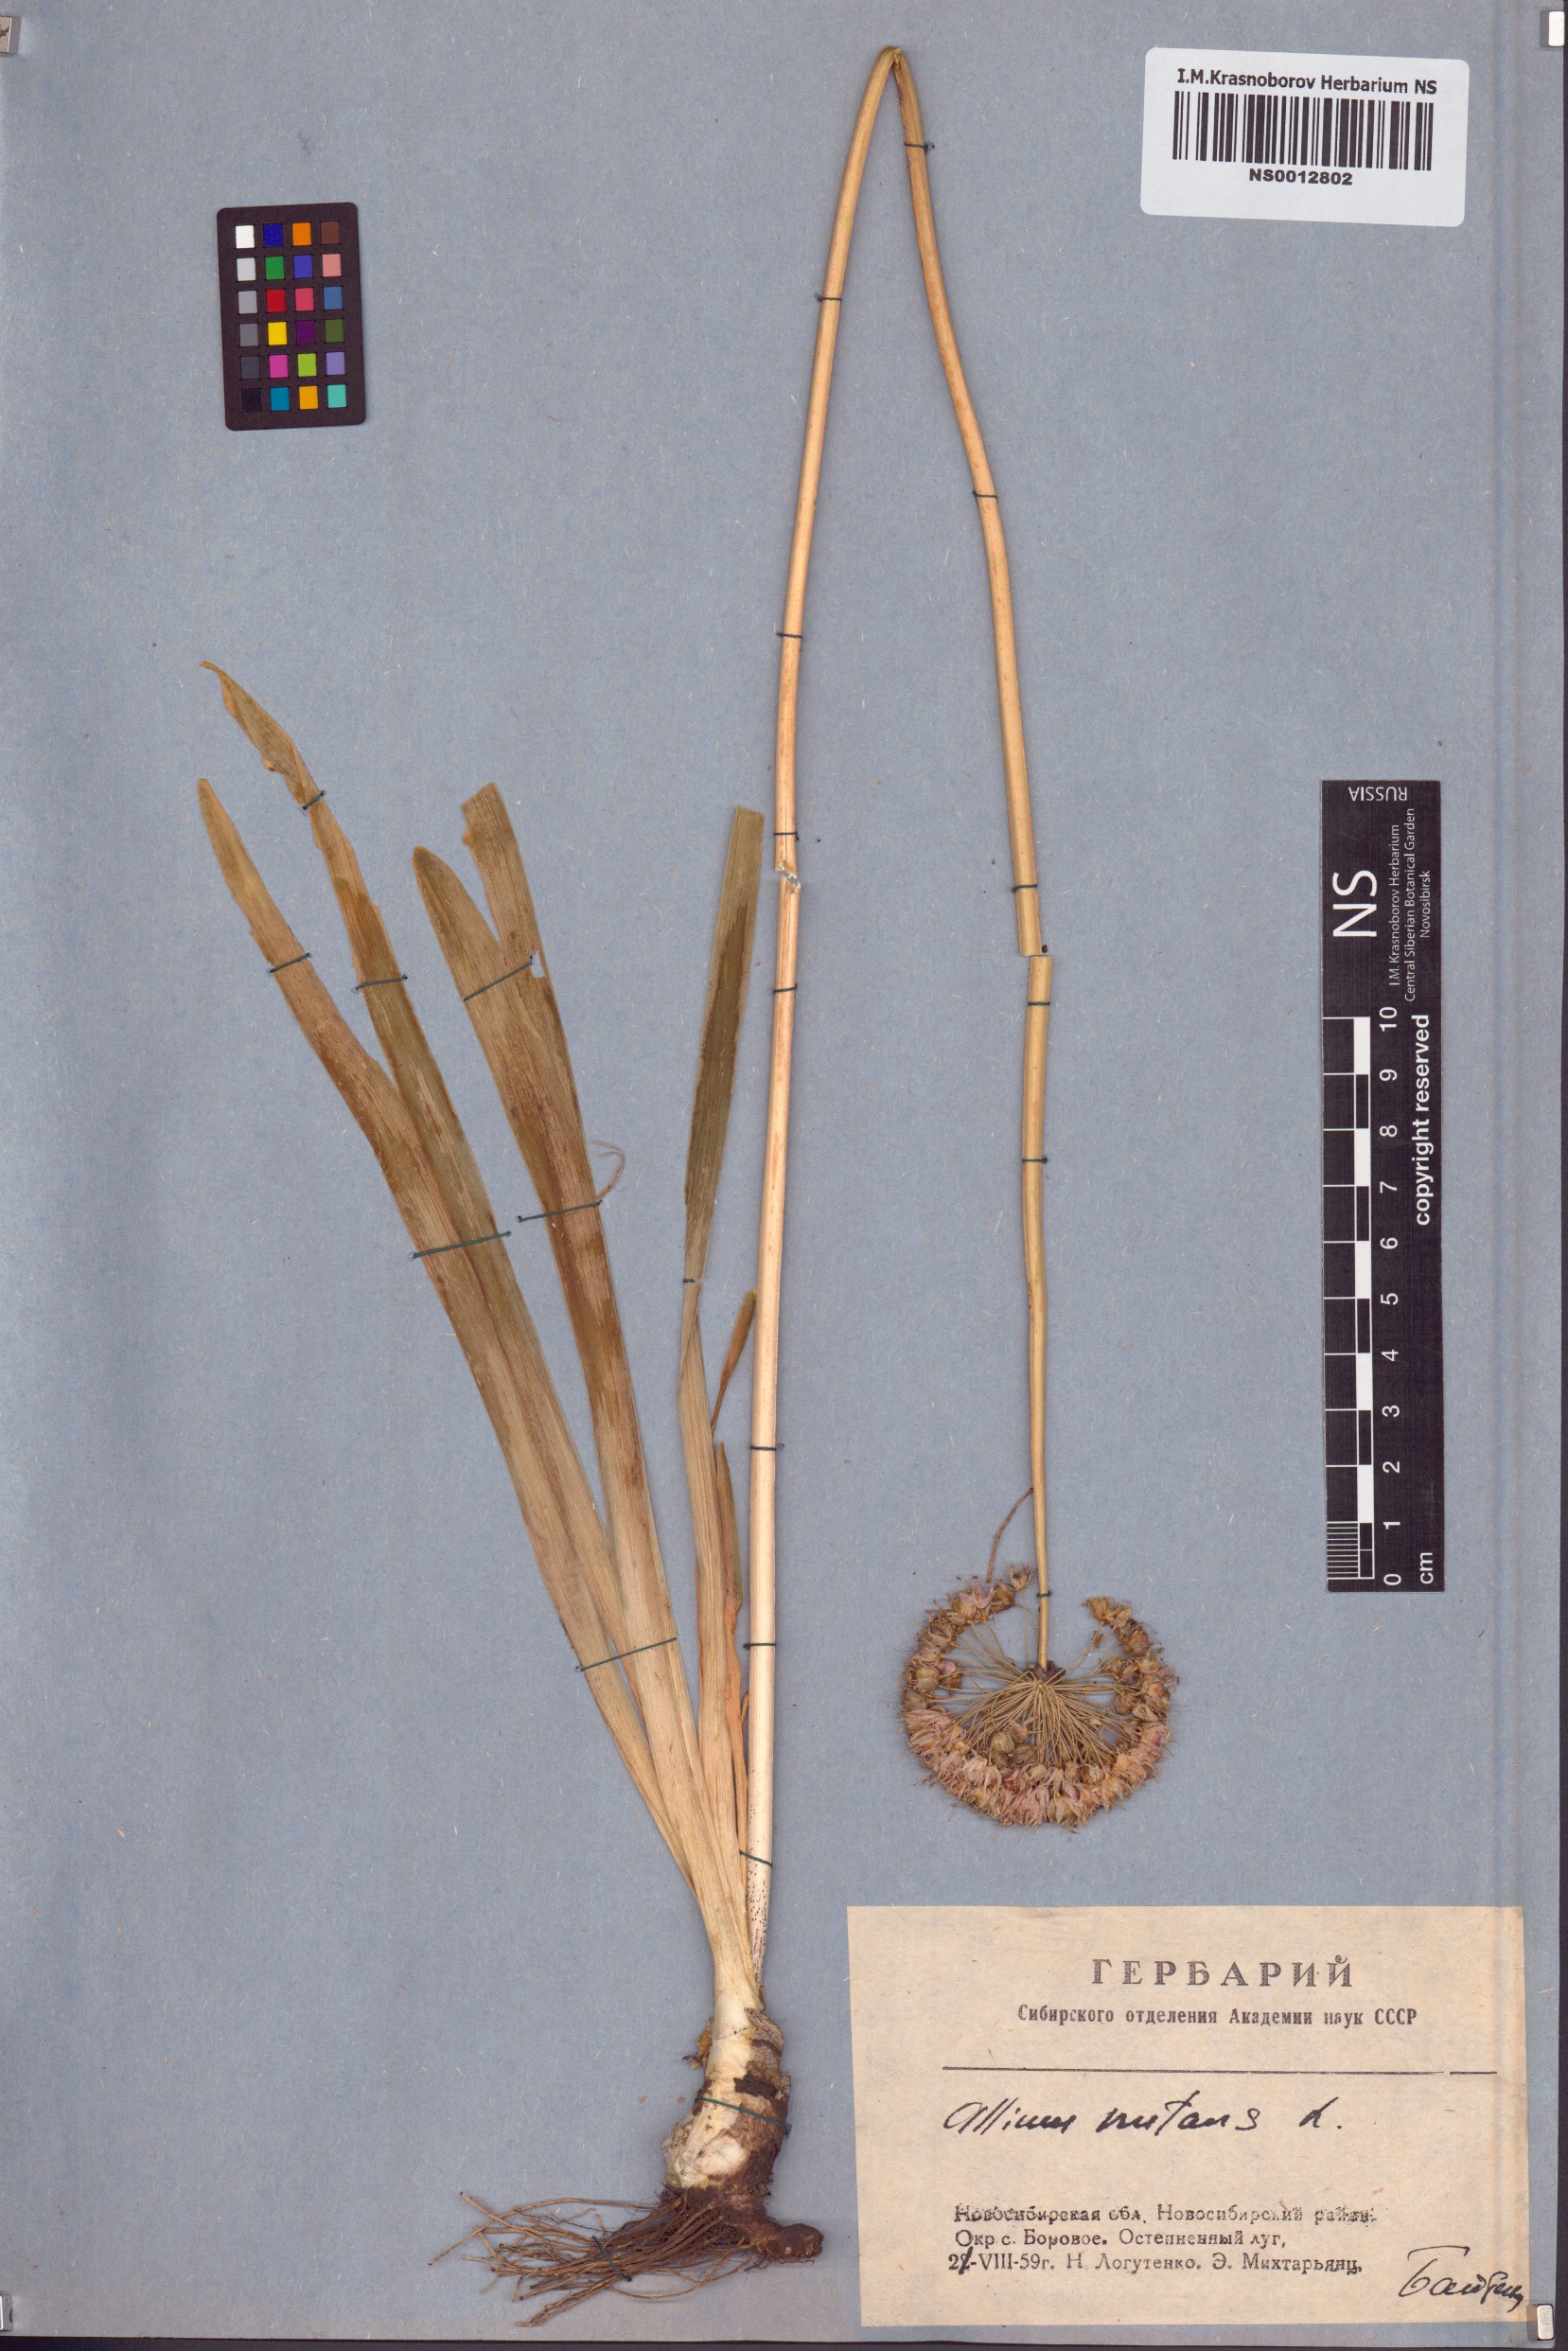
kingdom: Plantae
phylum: Tracheophyta
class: Liliopsida
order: Asparagales
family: Amaryllidaceae
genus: Allium
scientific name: Allium nutans
